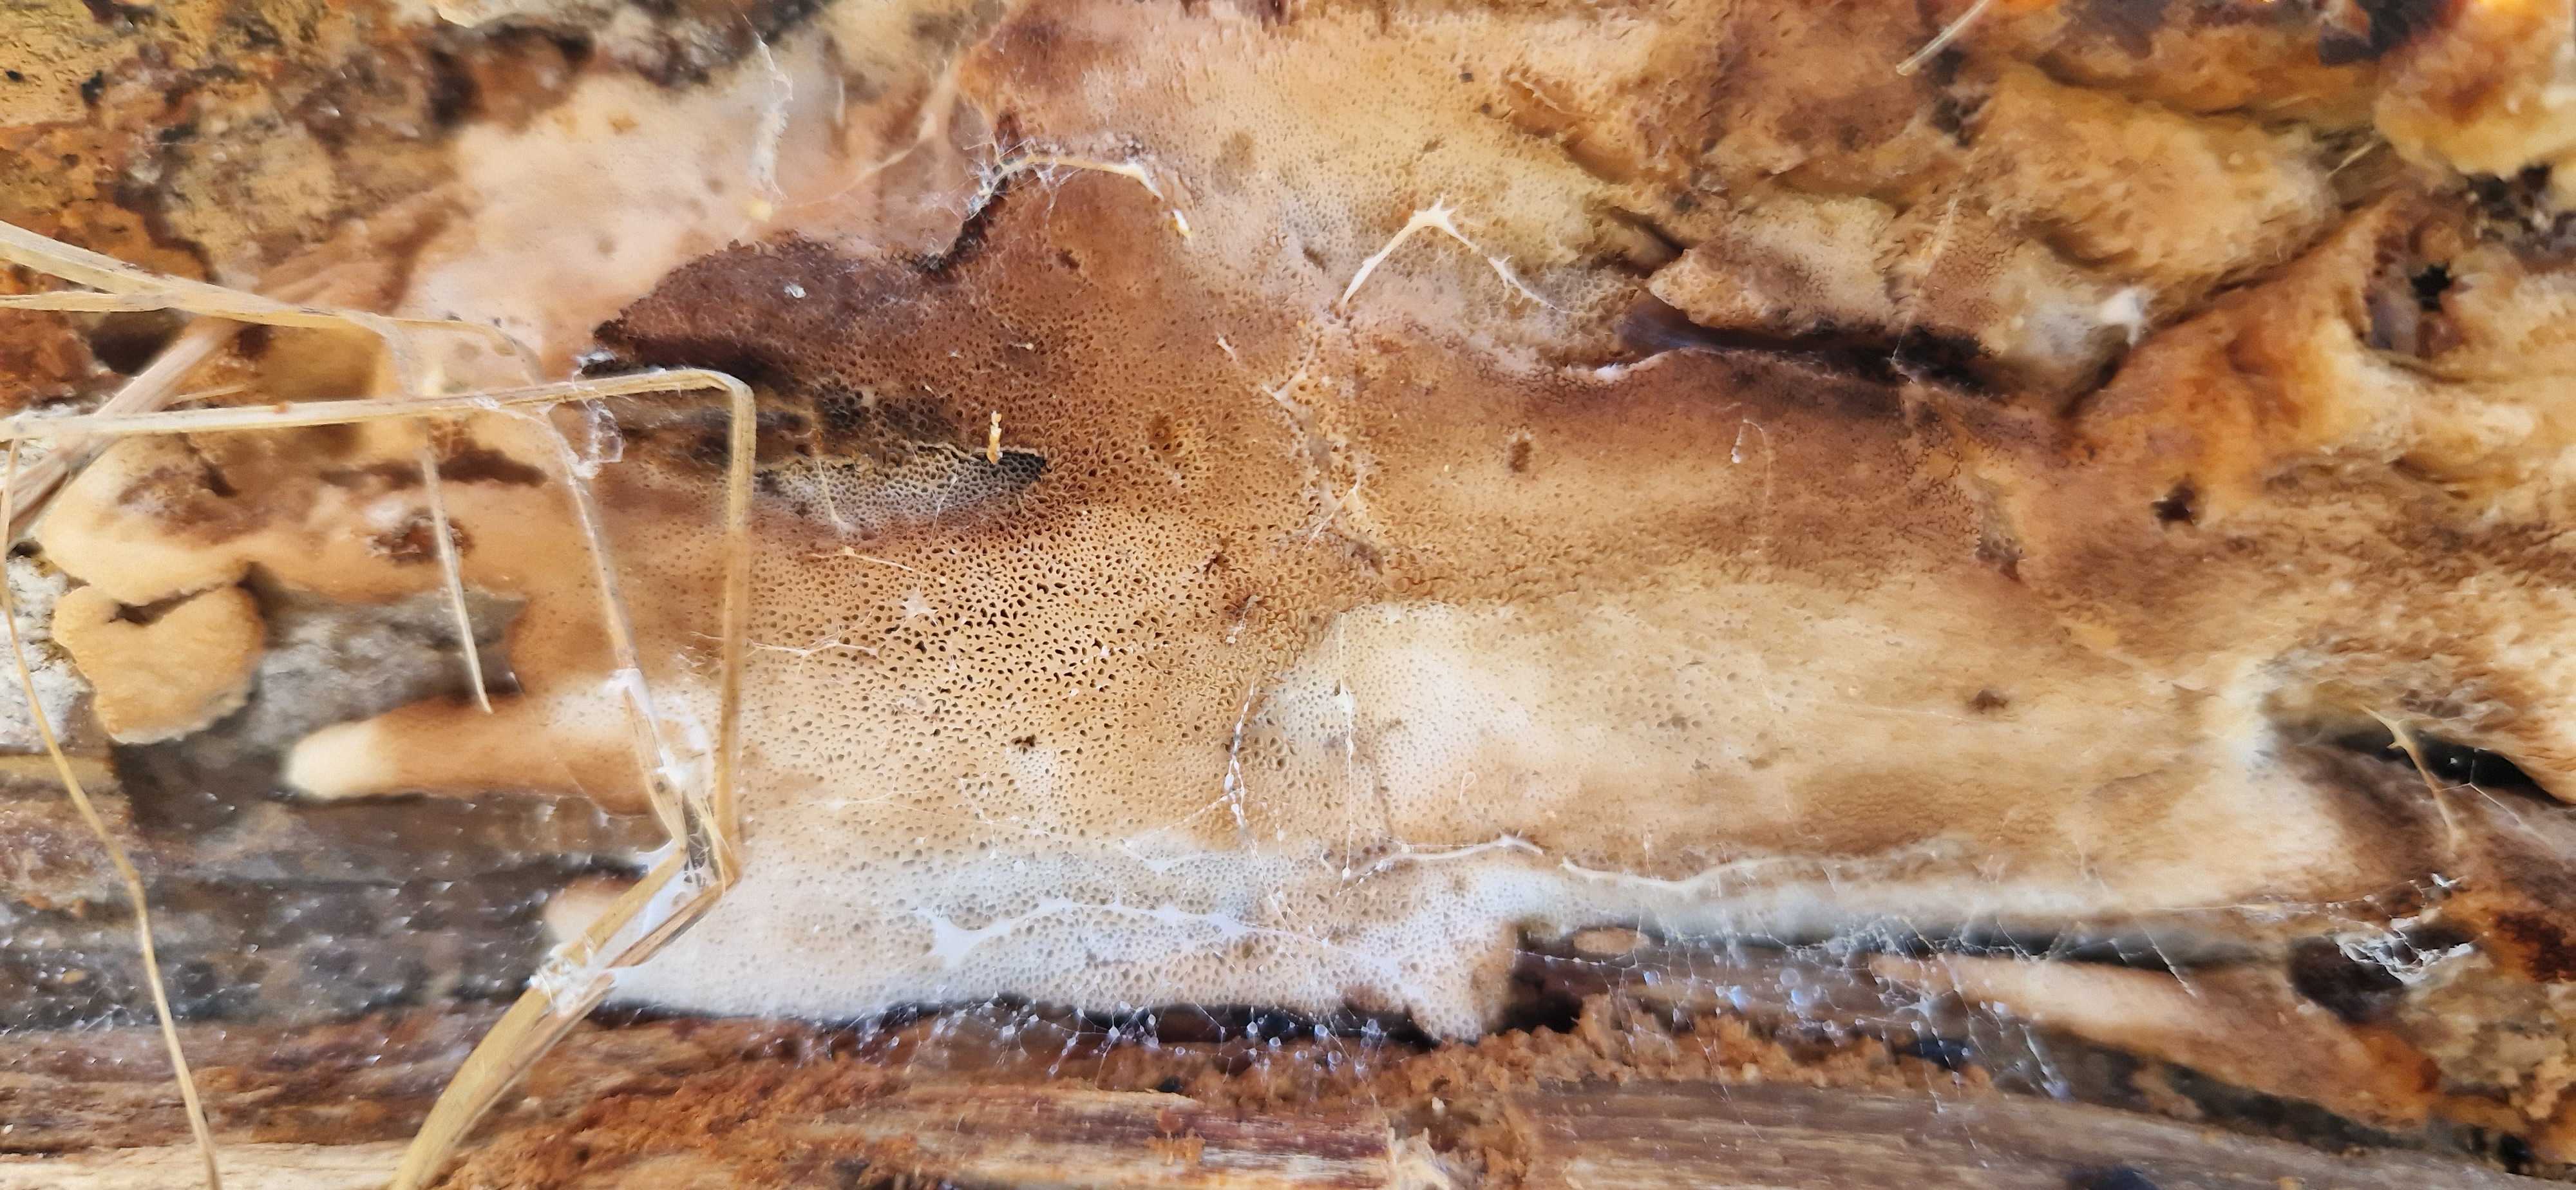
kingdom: Fungi
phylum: Basidiomycota
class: Agaricomycetes
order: Polyporales
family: Meripilaceae
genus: Rigidoporus
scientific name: Rigidoporus sanguinolentus
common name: blod-skorpeporesvamp
